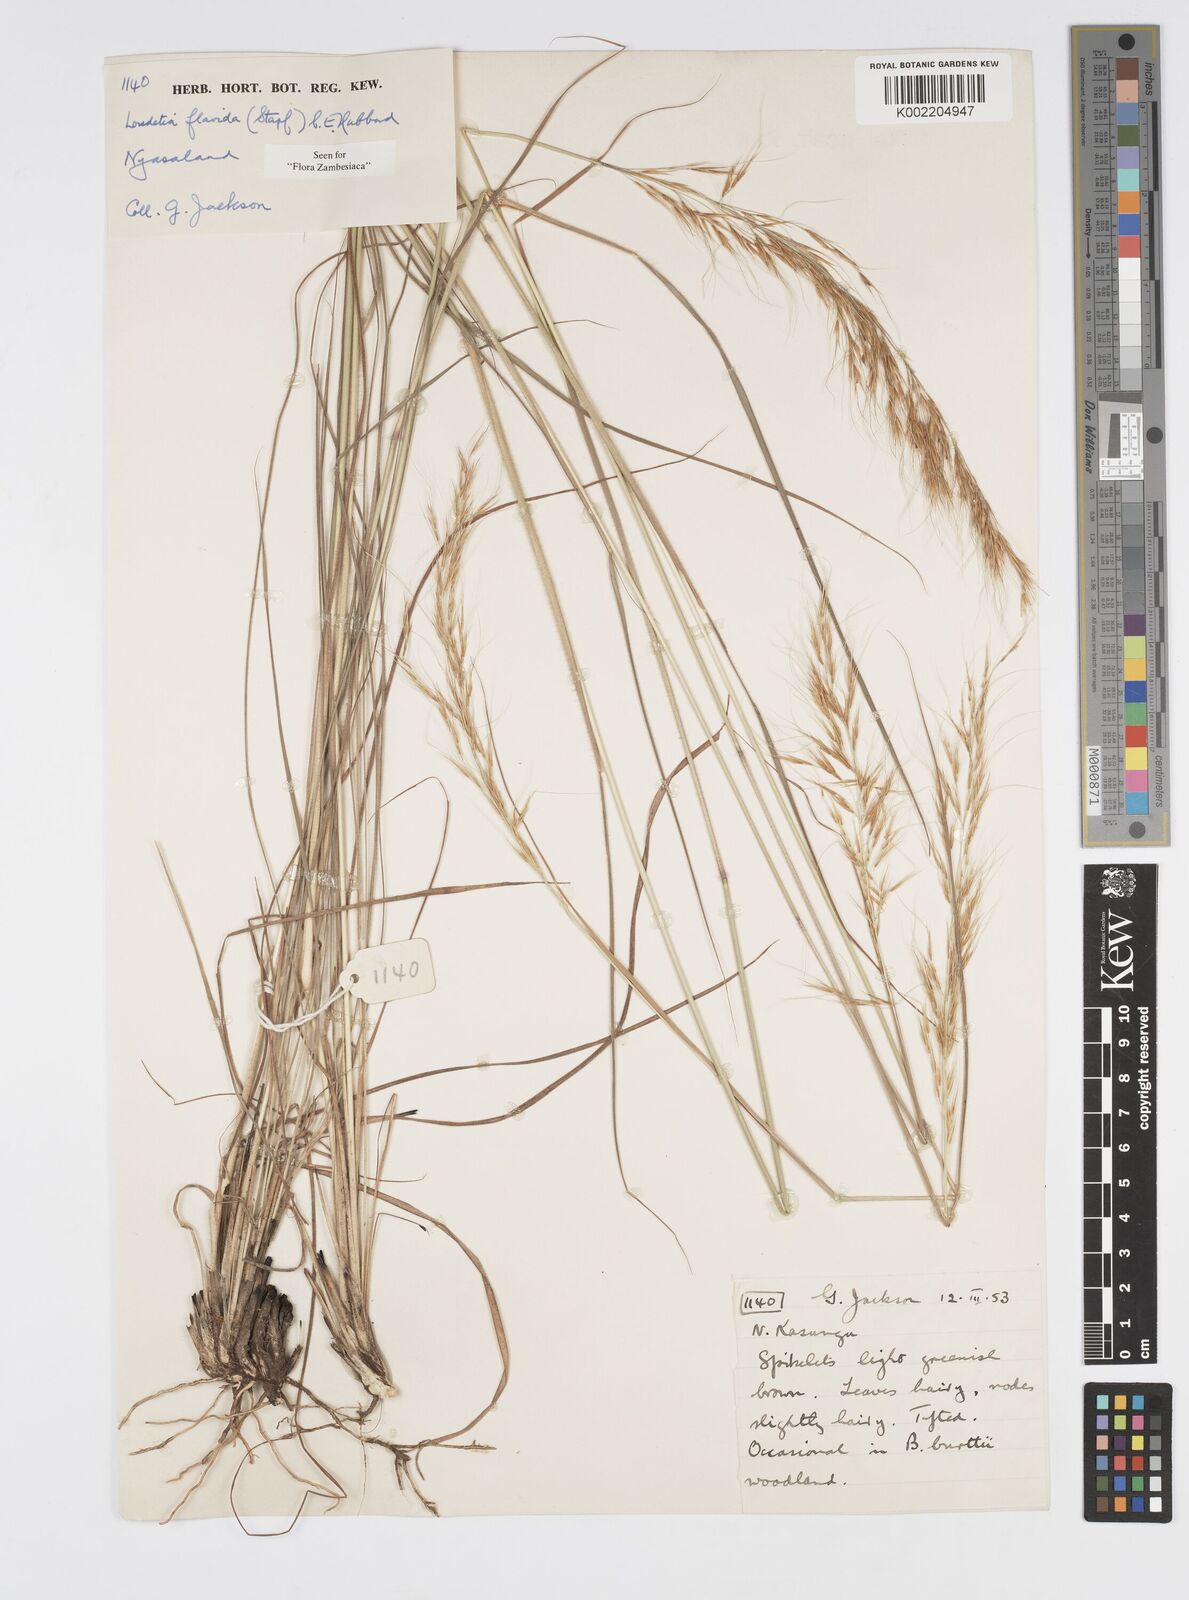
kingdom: Plantae
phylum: Tracheophyta
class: Liliopsida
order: Poales
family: Poaceae
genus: Loudetia
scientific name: Loudetia flavida
